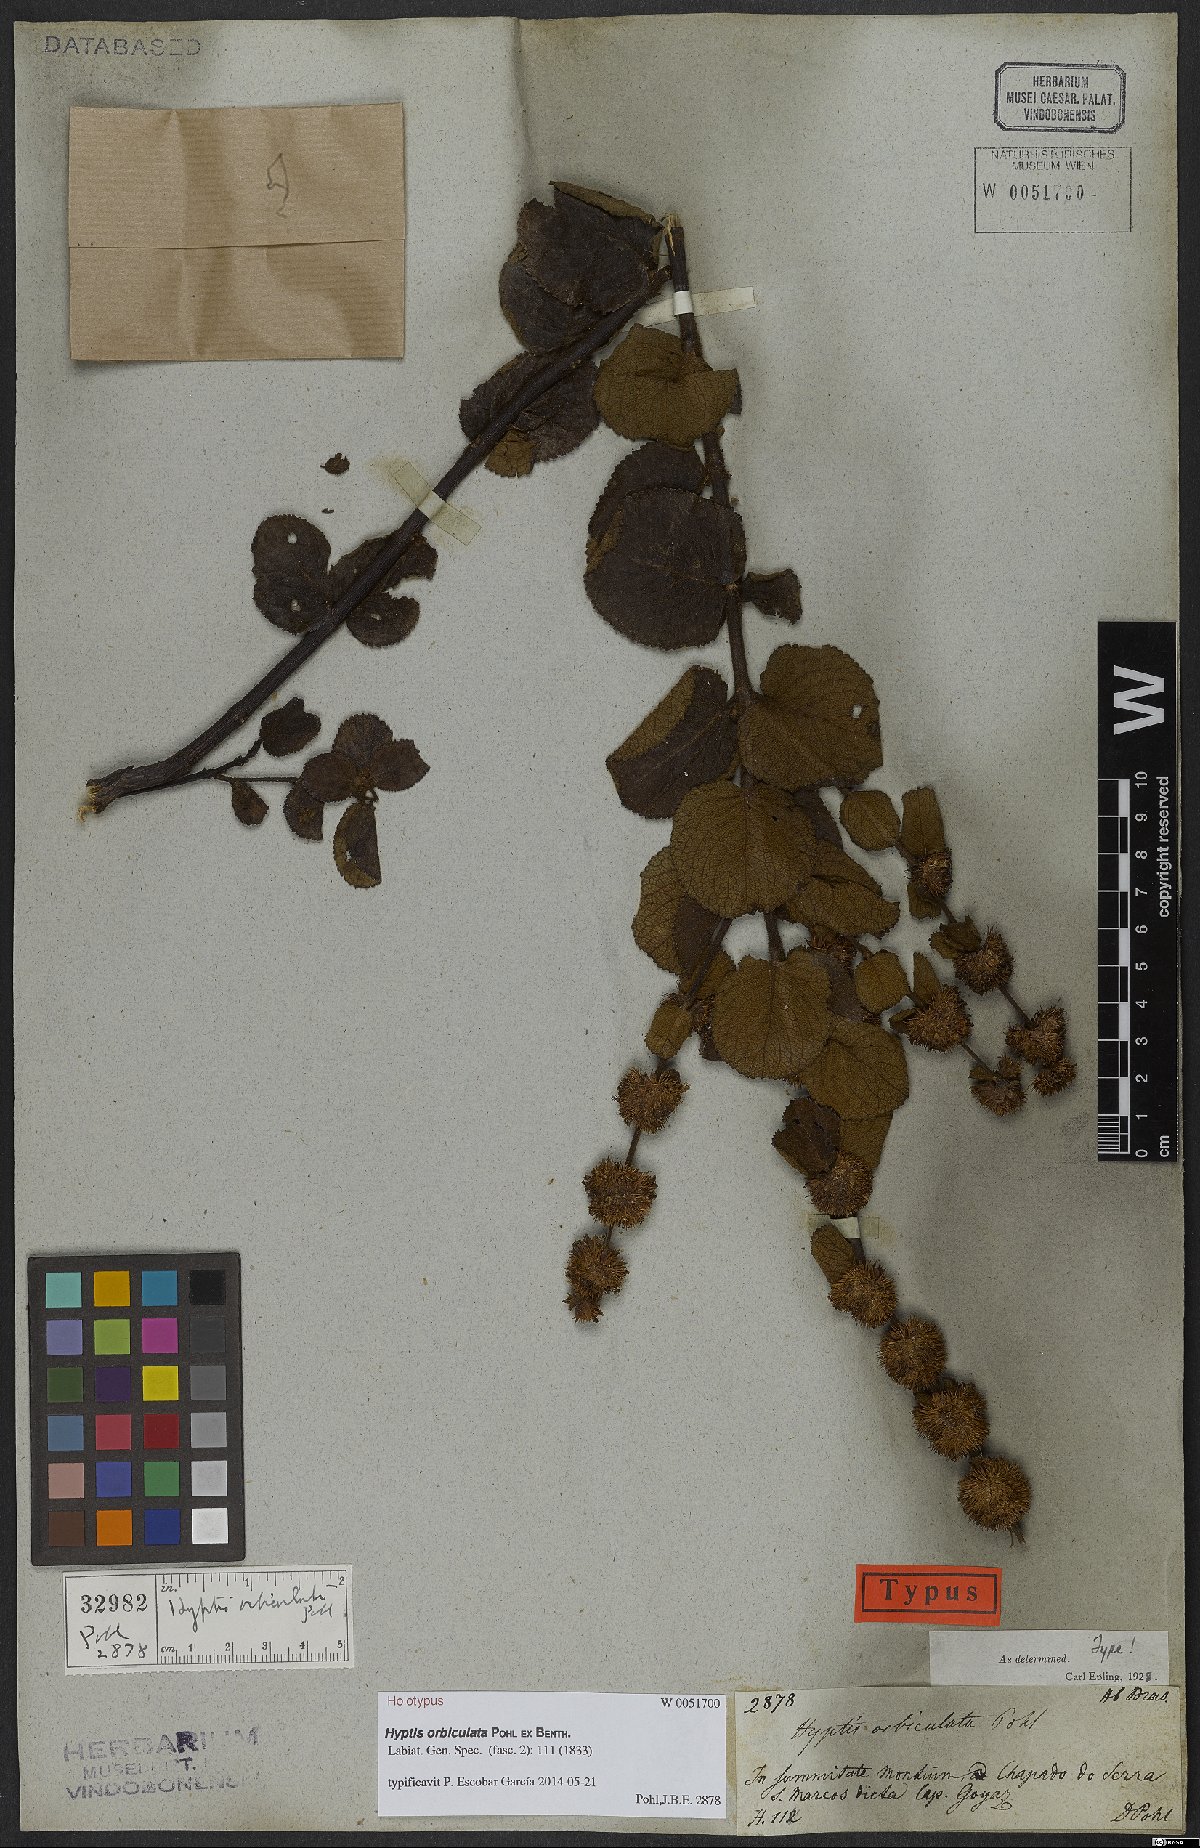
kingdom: Plantae
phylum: Tracheophyta
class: Magnoliopsida
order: Lamiales
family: Lamiaceae
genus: Hyptis
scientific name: Hyptis orbiculata
